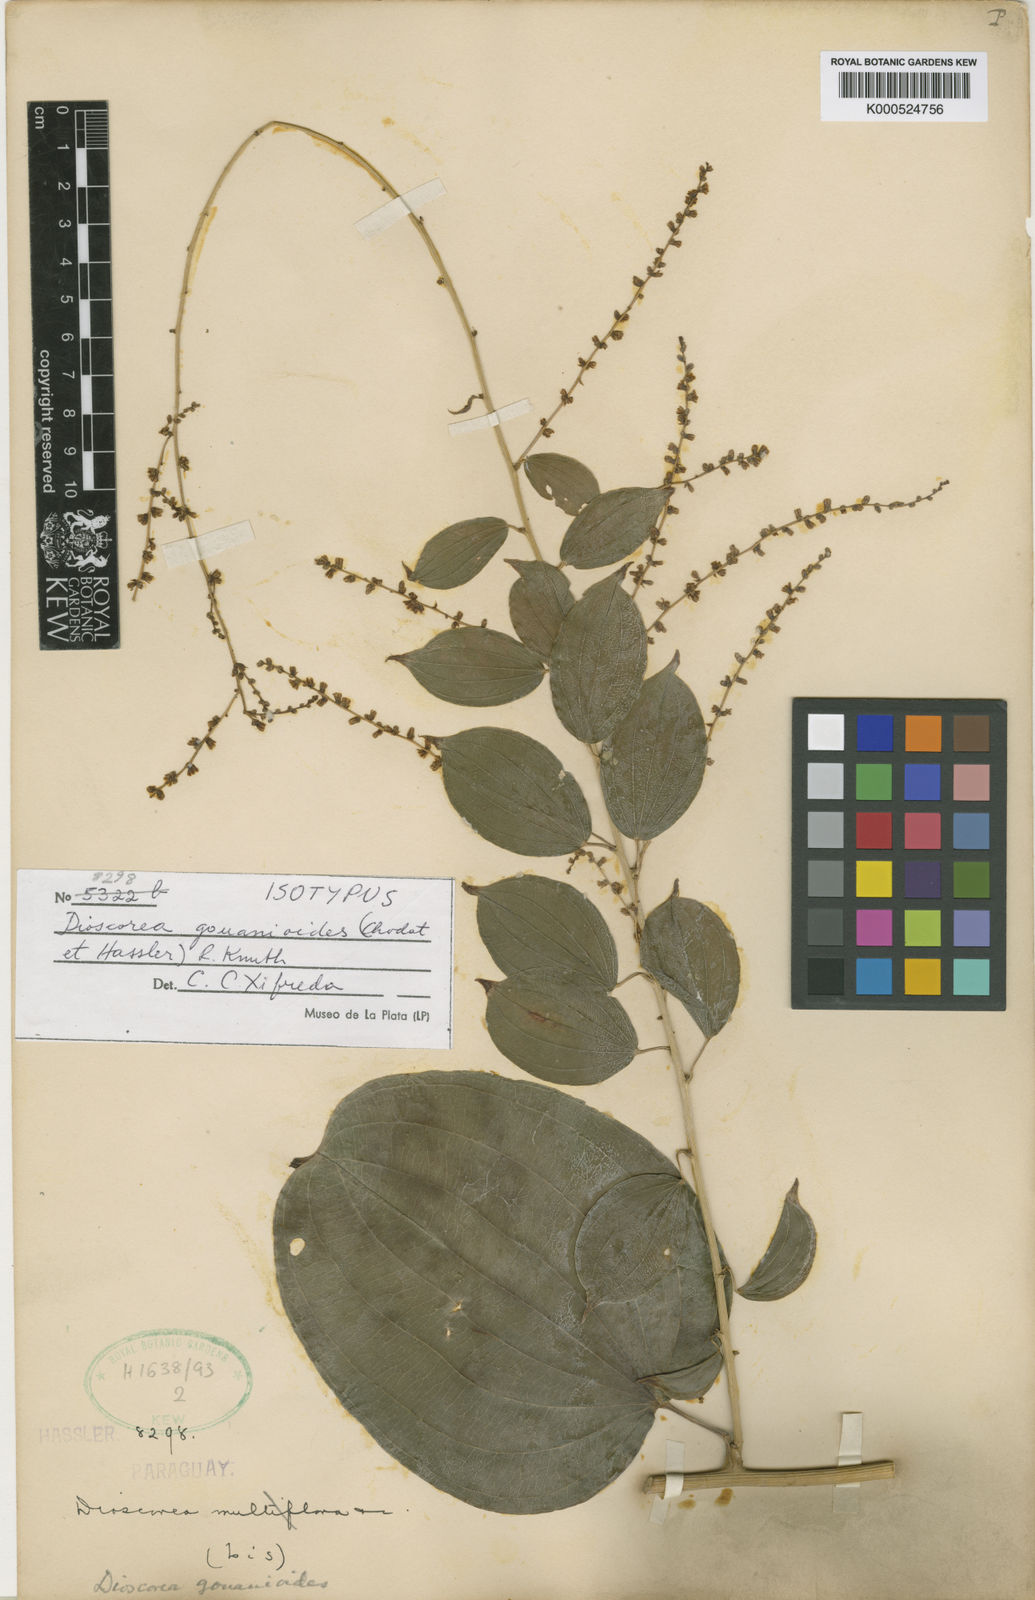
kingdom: Plantae
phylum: Tracheophyta
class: Liliopsida
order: Dioscoreales
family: Dioscoreaceae
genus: Dioscorea
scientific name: Dioscorea acanthogene
